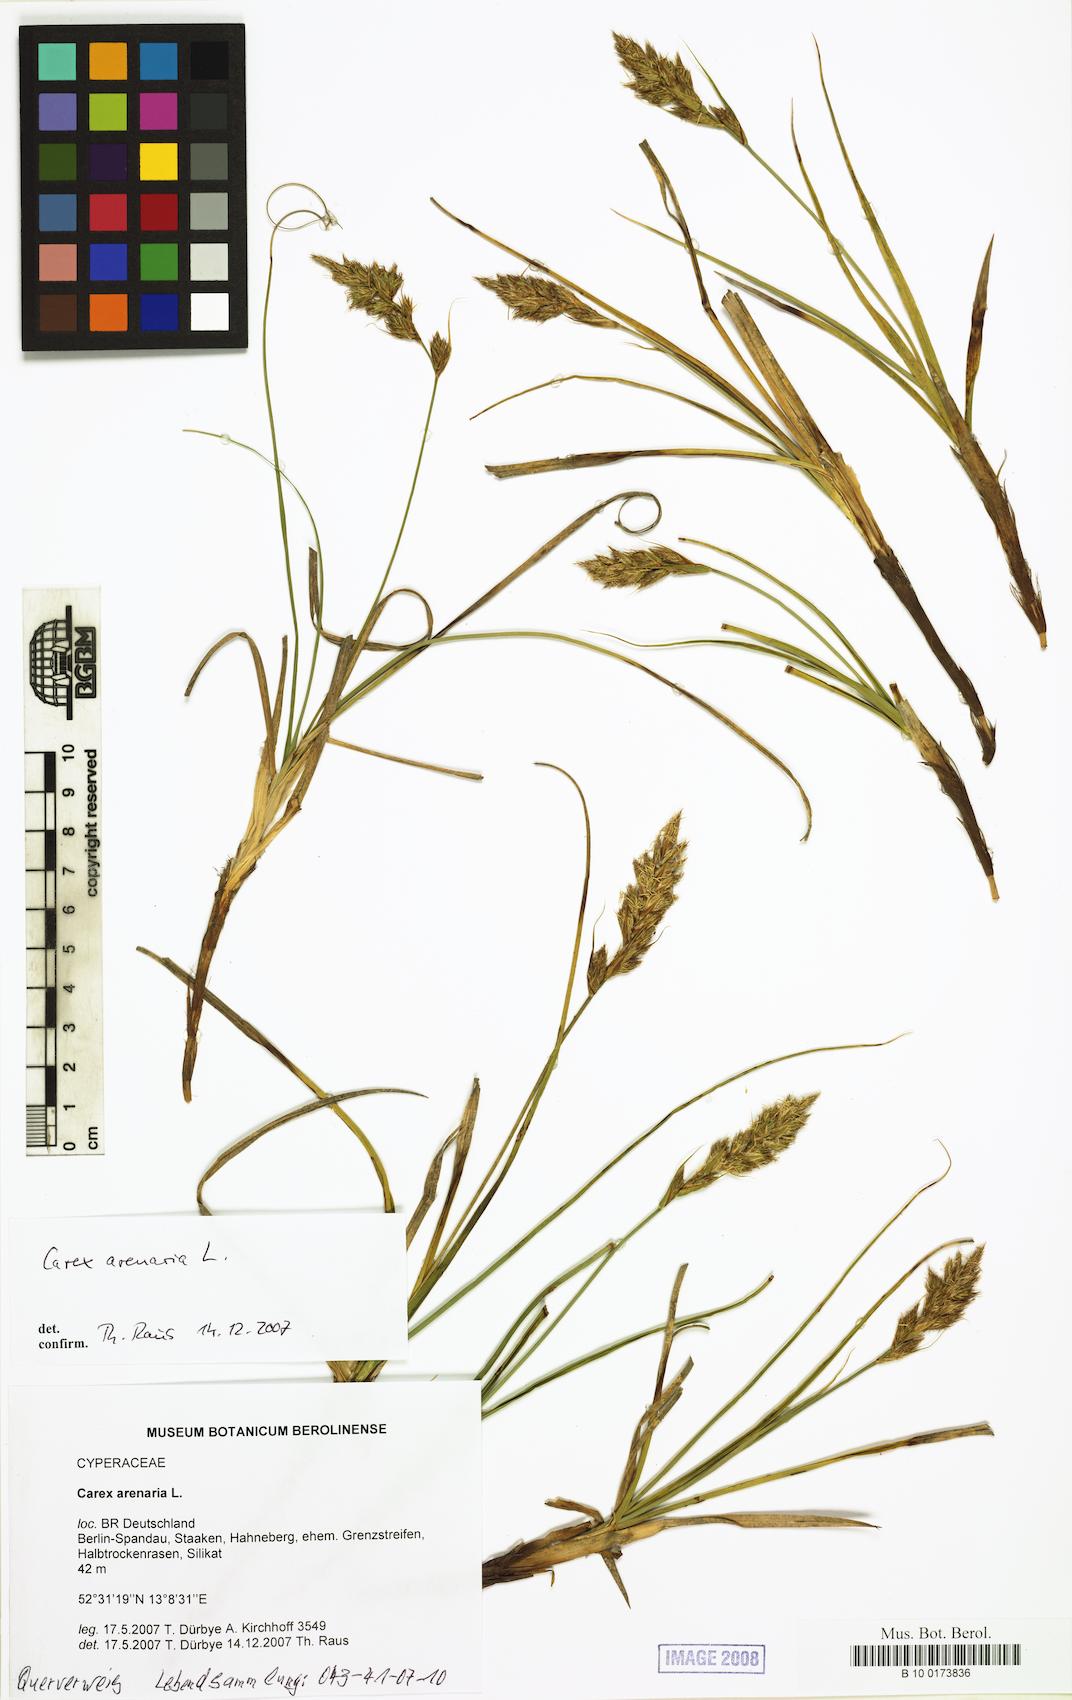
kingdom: Plantae
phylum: Tracheophyta
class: Liliopsida
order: Poales
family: Cyperaceae
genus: Carex
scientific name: Carex arenaria
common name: Sand sedge
